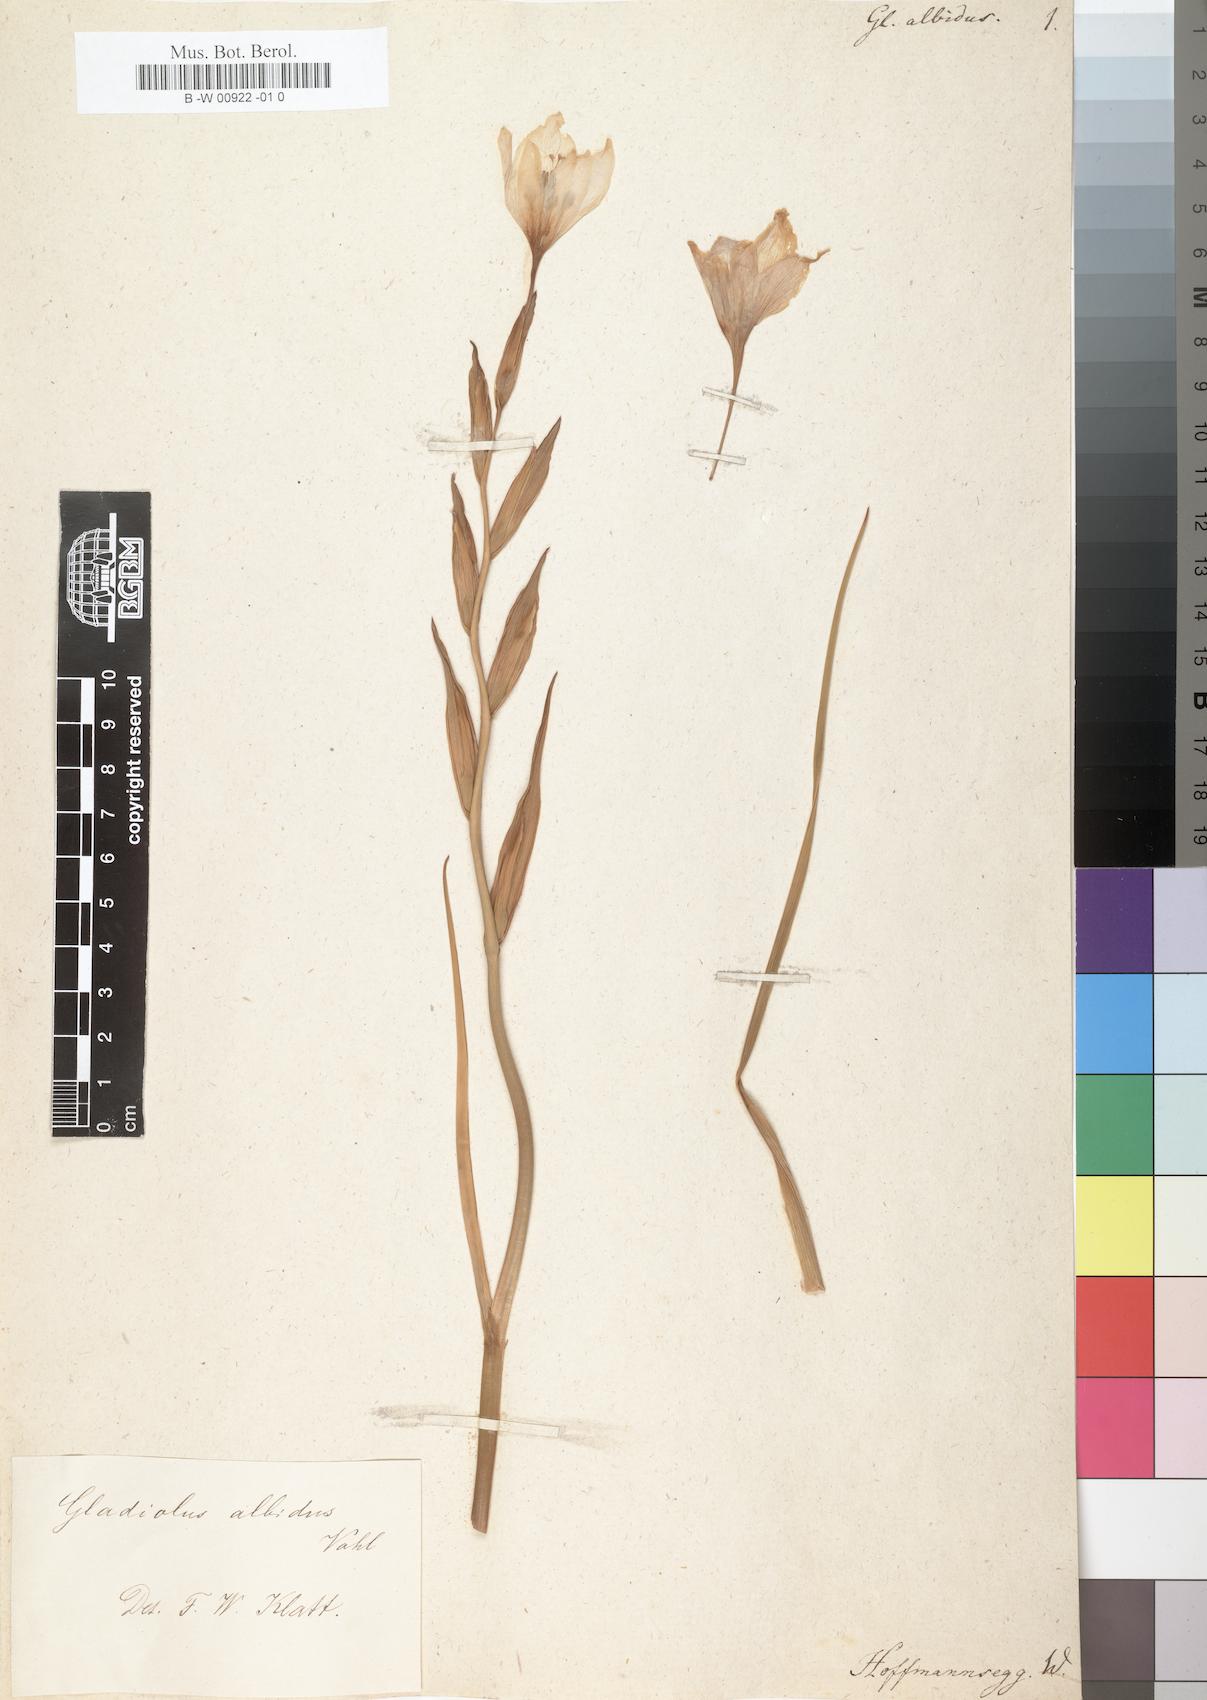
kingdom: Plantae
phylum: Tracheophyta
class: Liliopsida
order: Asparagales
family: Iridaceae
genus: Gladiolus
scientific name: Gladiolus carneus
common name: Painted-lady
